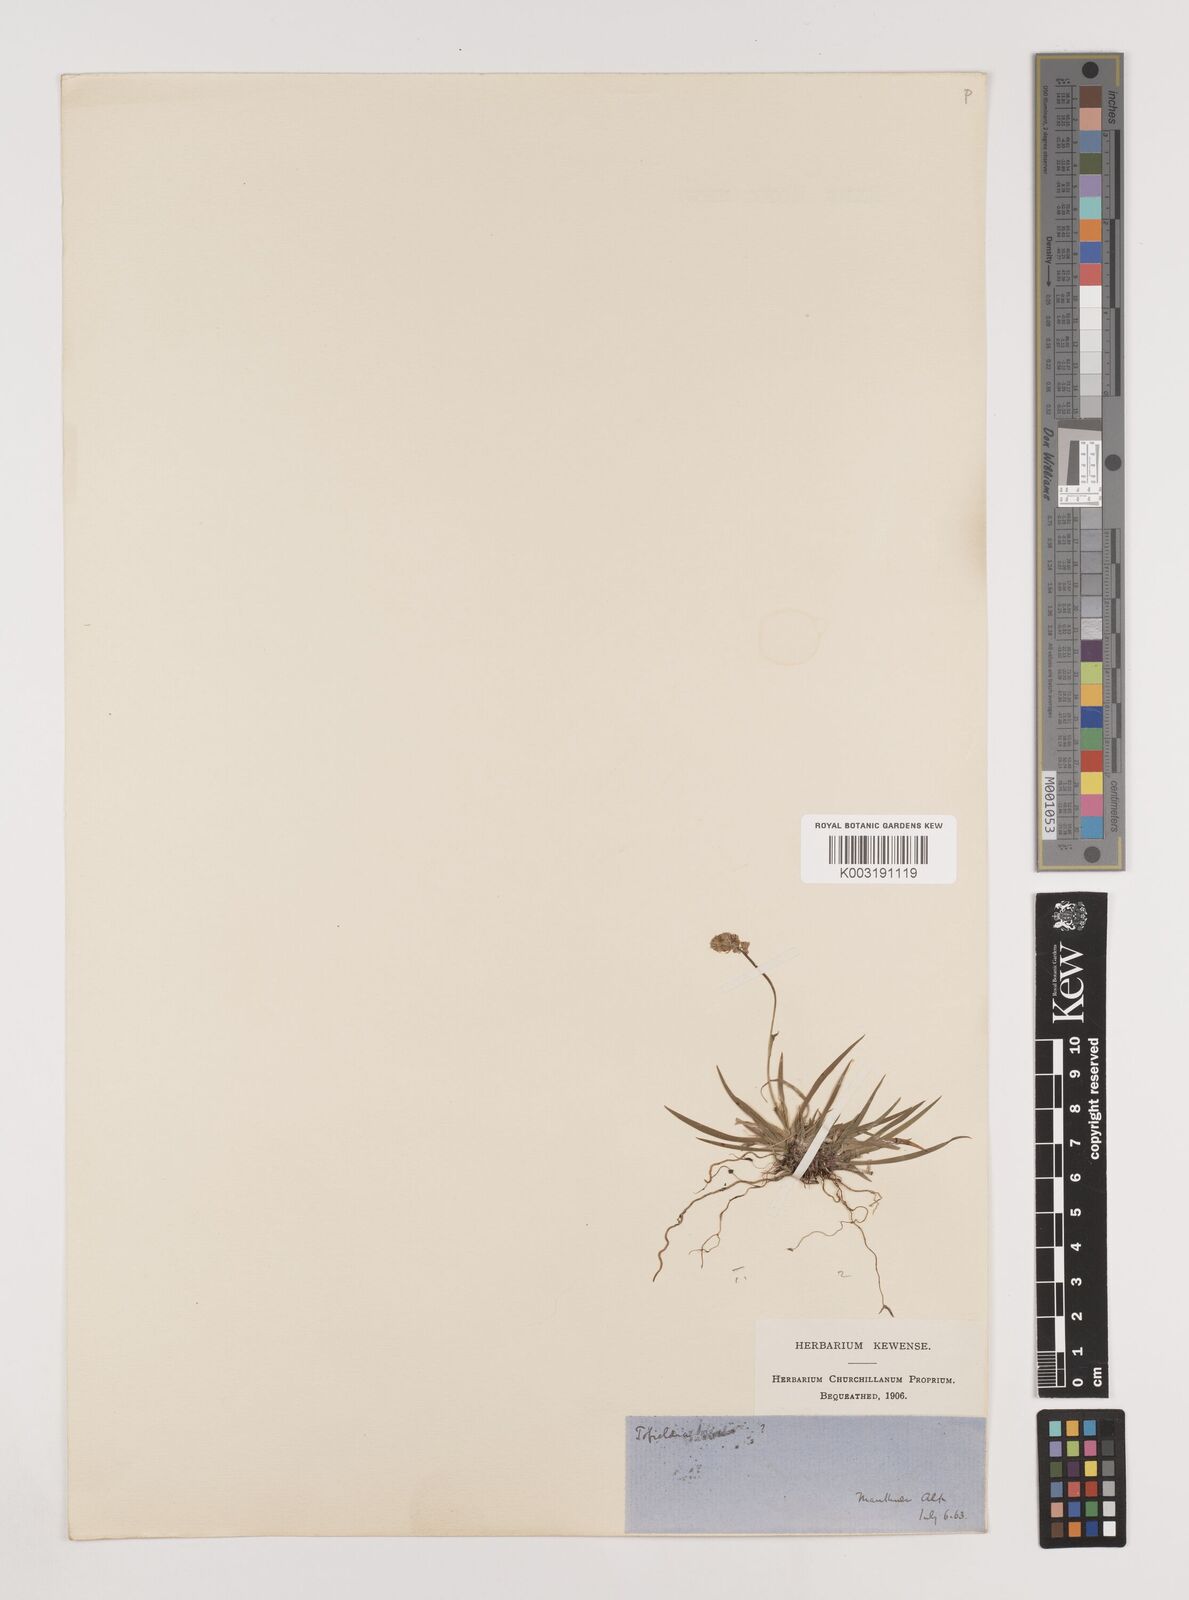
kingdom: Plantae
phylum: Tracheophyta
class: Liliopsida
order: Alismatales
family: Tofieldiaceae
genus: Tofieldia
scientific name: Tofieldia pusilla
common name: Scottish false asphodel
